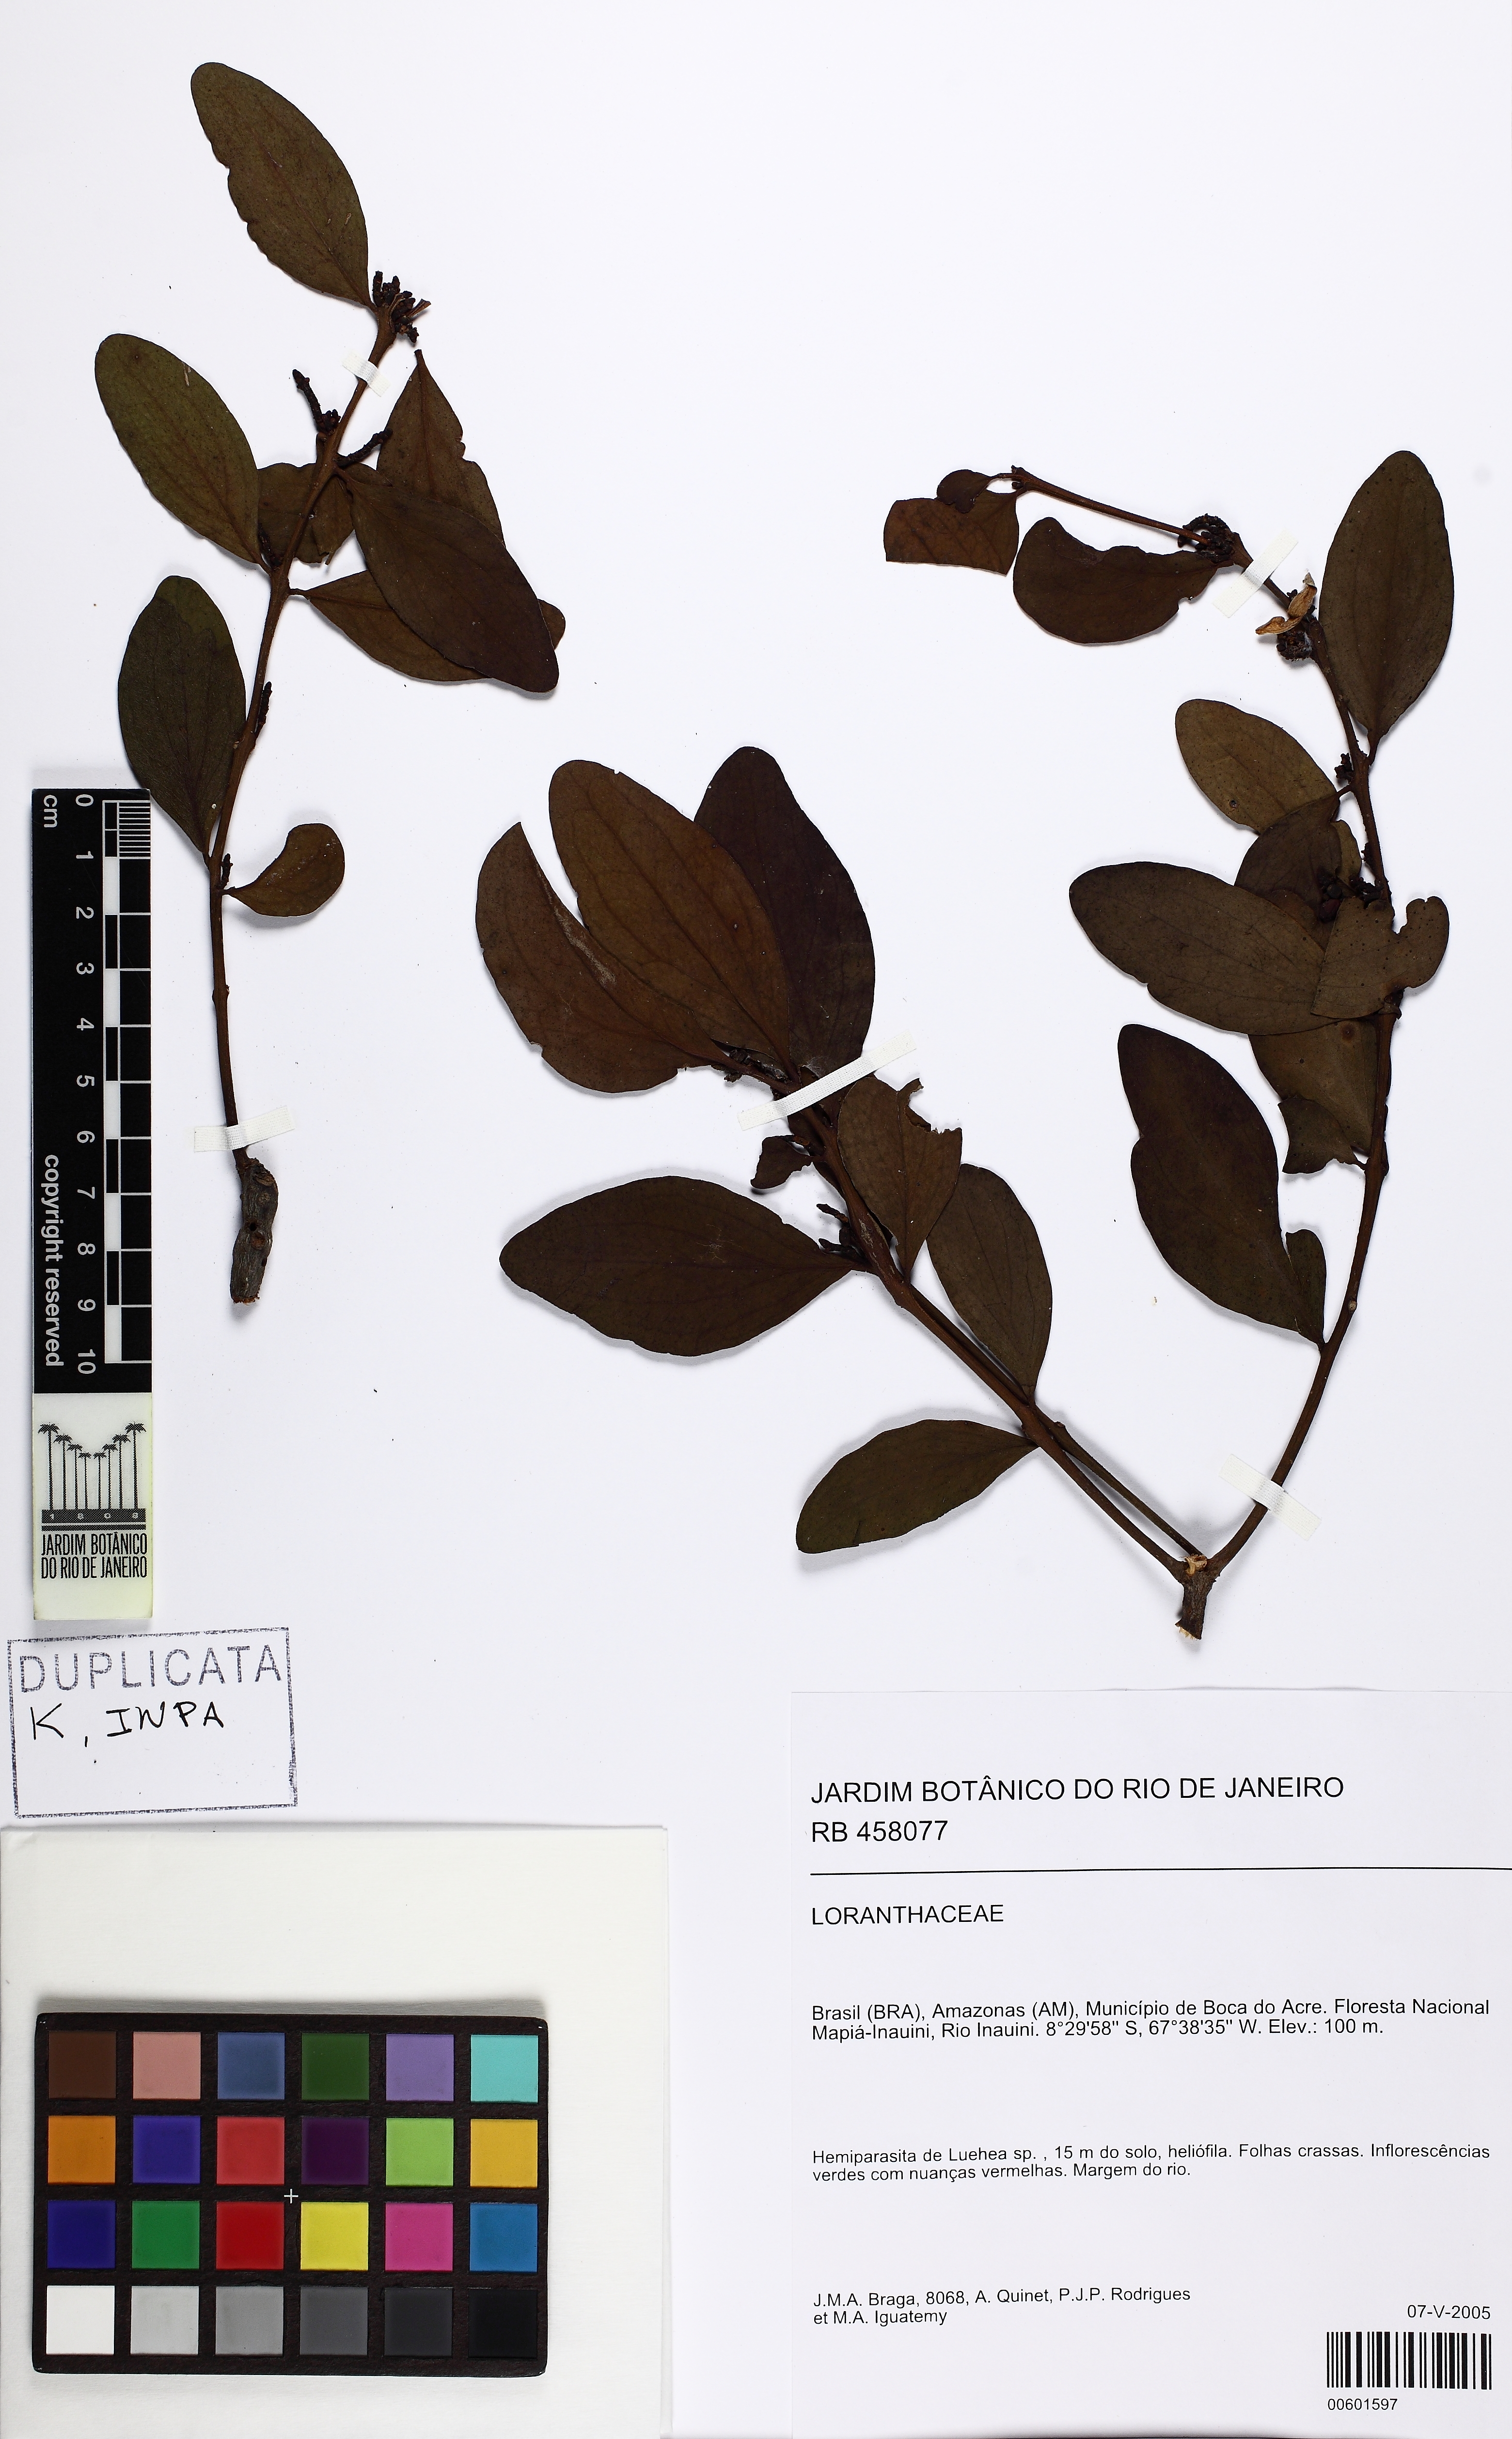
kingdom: Plantae
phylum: Tracheophyta
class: Magnoliopsida
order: Santalales
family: Loranthaceae
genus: Oryctanthus
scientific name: Oryctanthus florulentus
